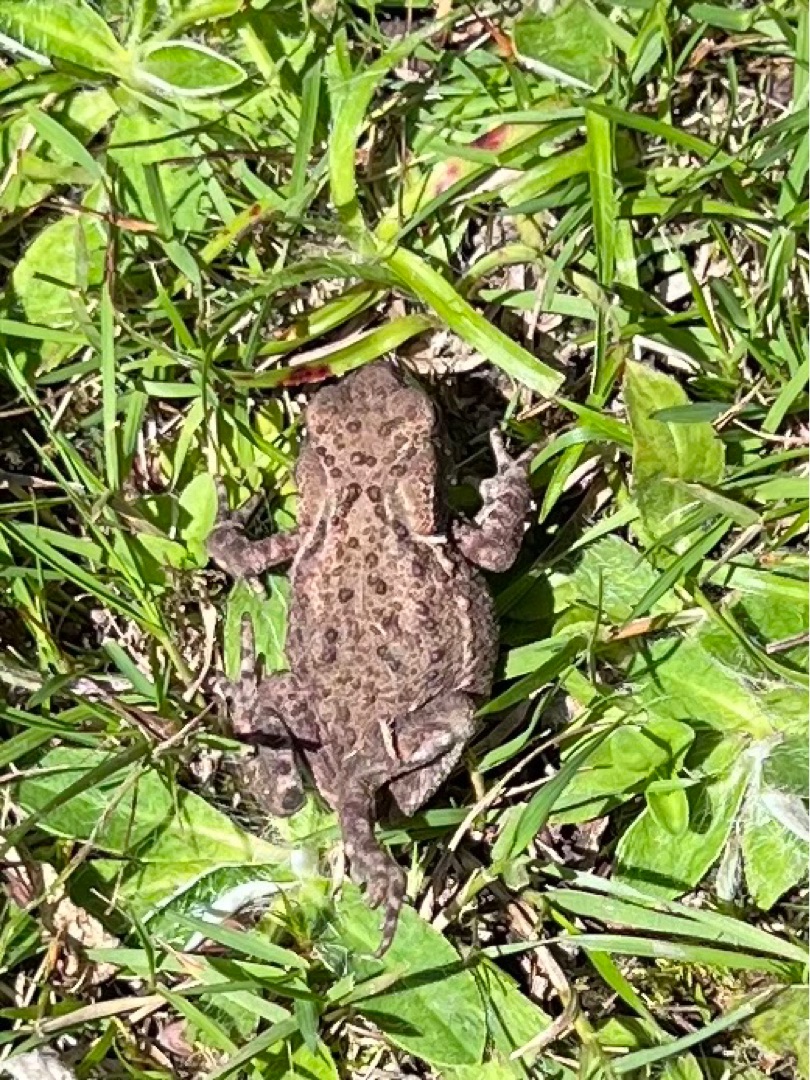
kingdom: Animalia
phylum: Chordata
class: Amphibia
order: Anura
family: Bufonidae
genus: Bufo
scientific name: Bufo bufo
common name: Skrubtudse
